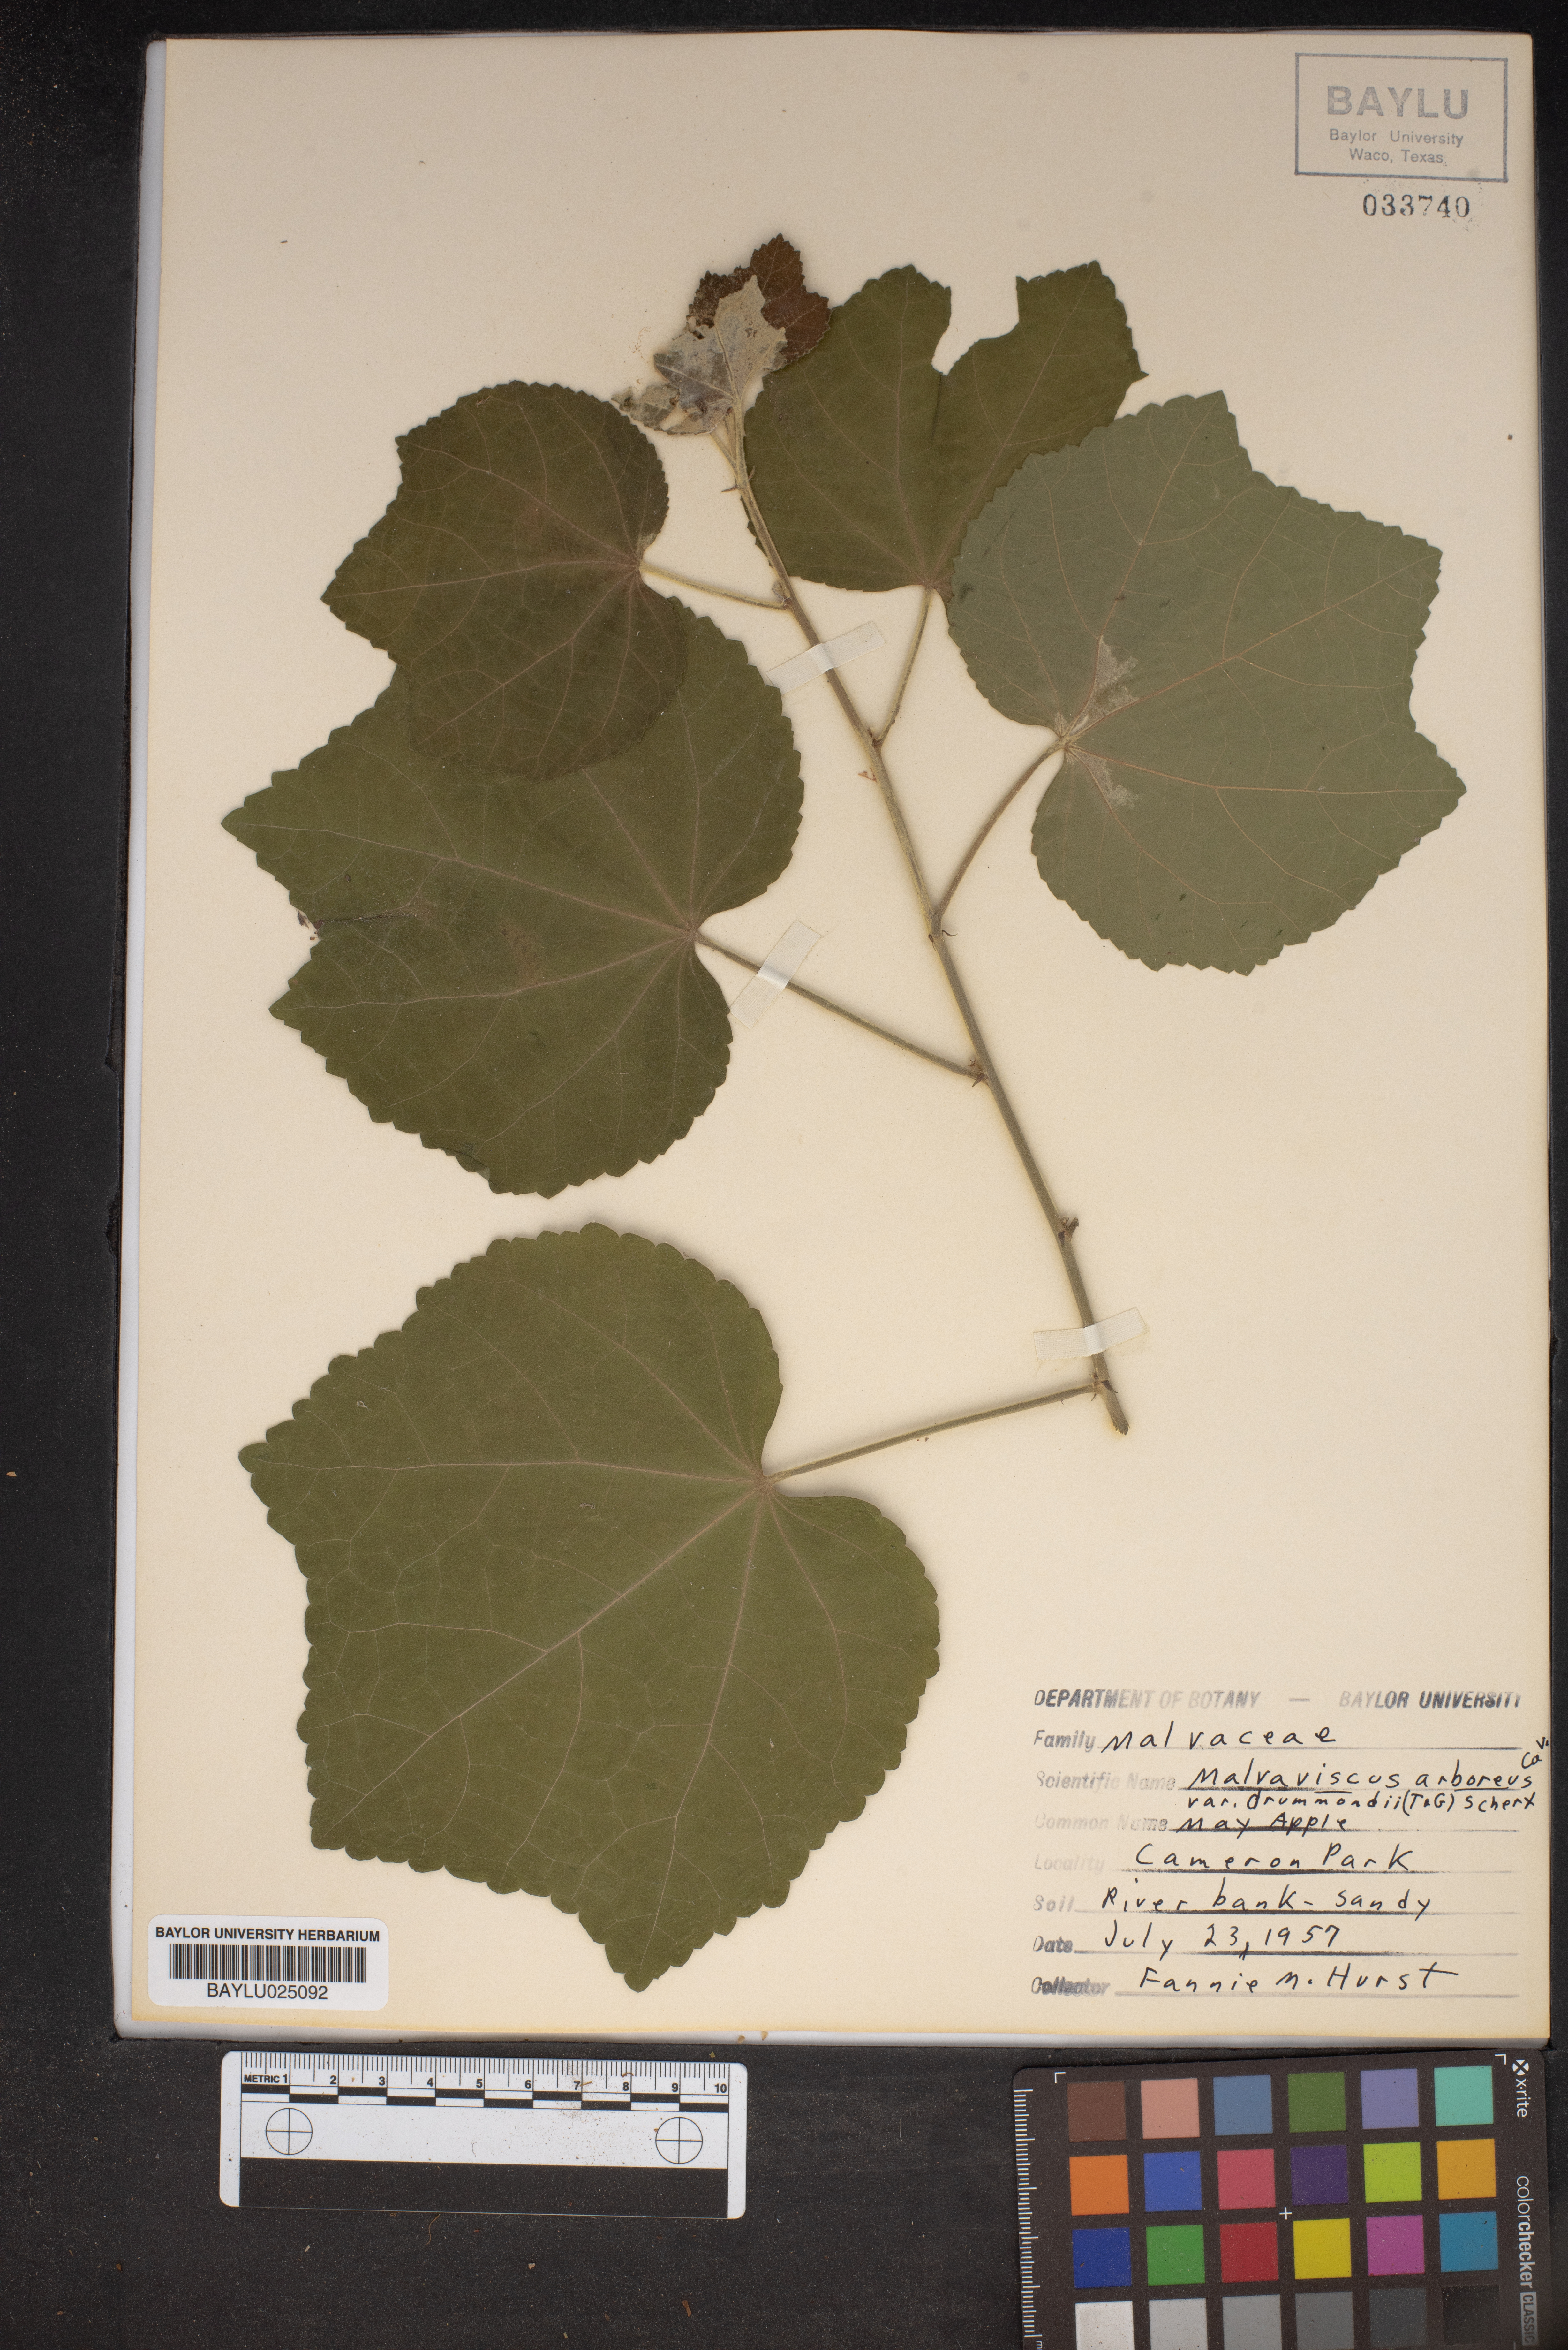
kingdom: Plantae
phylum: Tracheophyta
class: Magnoliopsida
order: Malvales
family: Malvaceae
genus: Malvaviscus
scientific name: Malvaviscus arboreus
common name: Wax mallow
